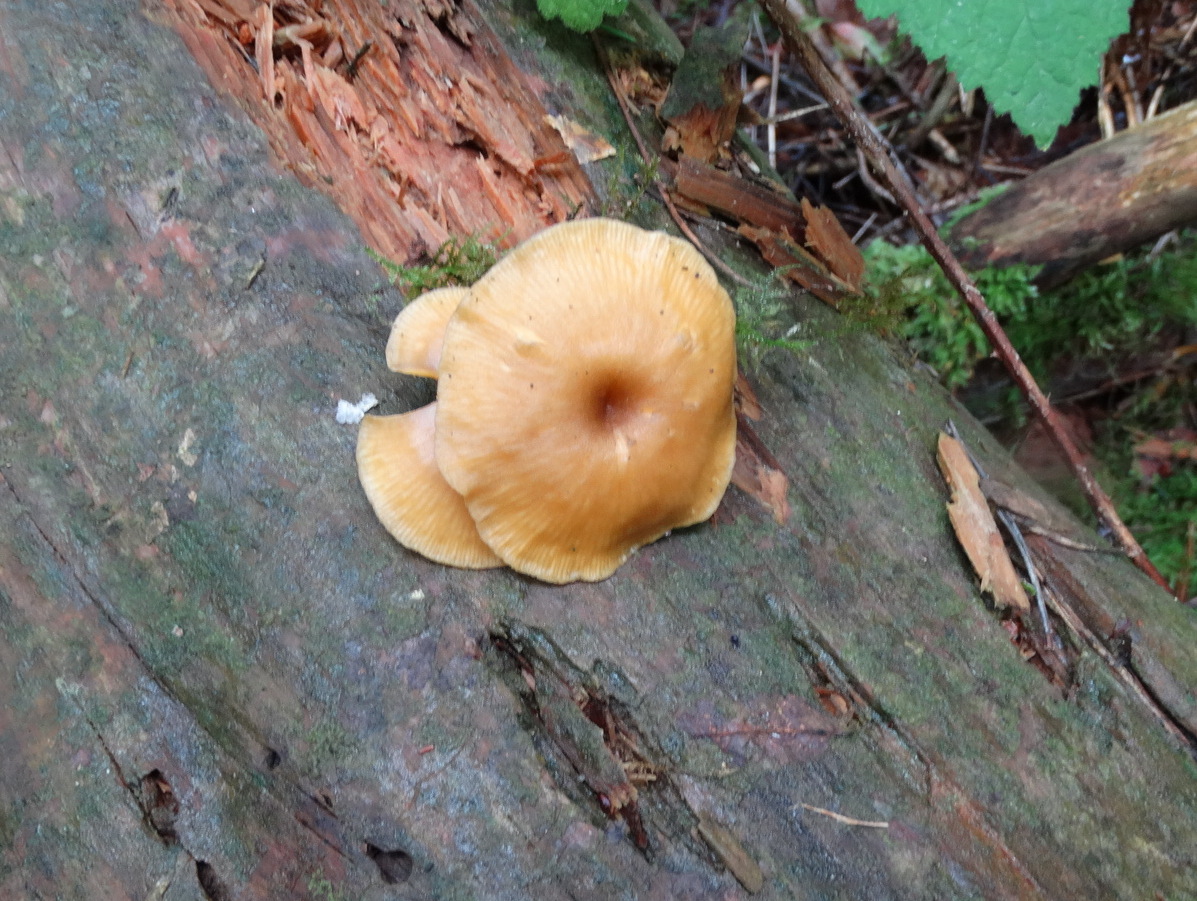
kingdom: Fungi
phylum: Basidiomycota
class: Agaricomycetes
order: Agaricales
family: Hygrophoraceae
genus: Chrysomphalina
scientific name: Chrysomphalina chrysophylla
